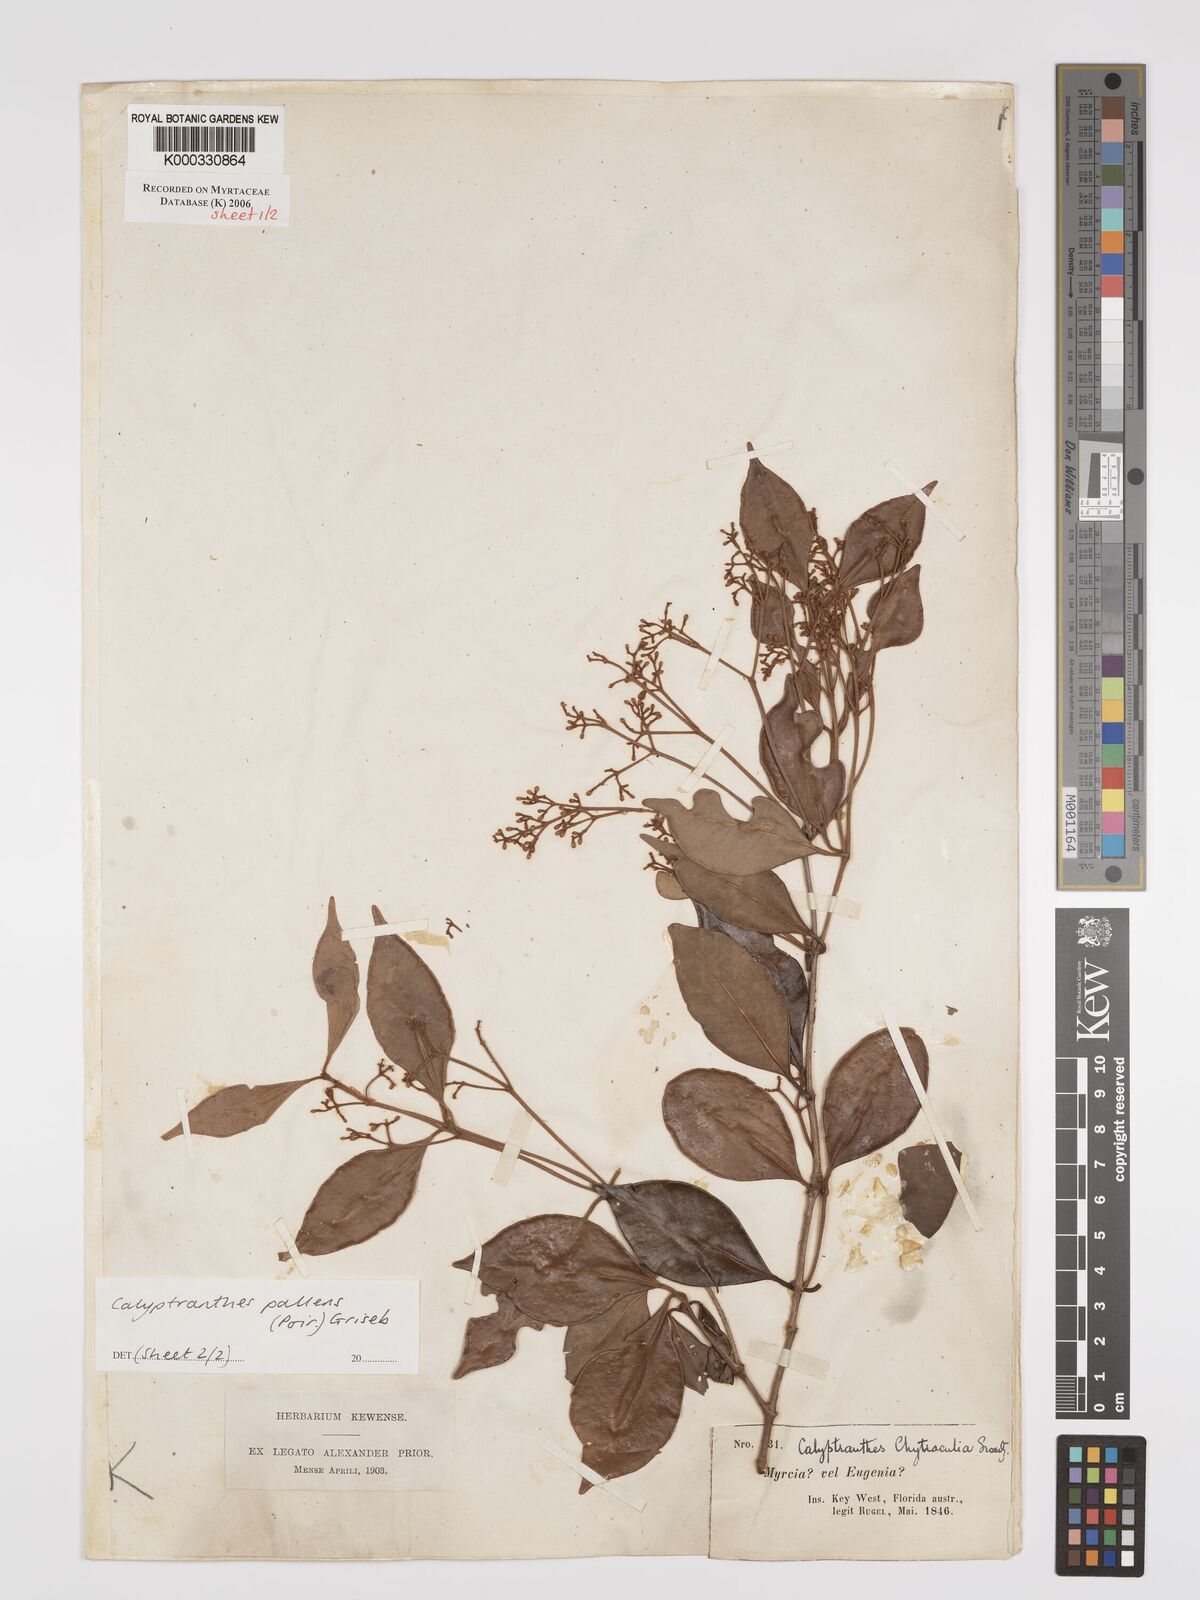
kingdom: Plantae
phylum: Tracheophyta
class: Magnoliopsida
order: Myrtales
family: Myrtaceae
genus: Myrcia
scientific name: Myrcia neopallens
